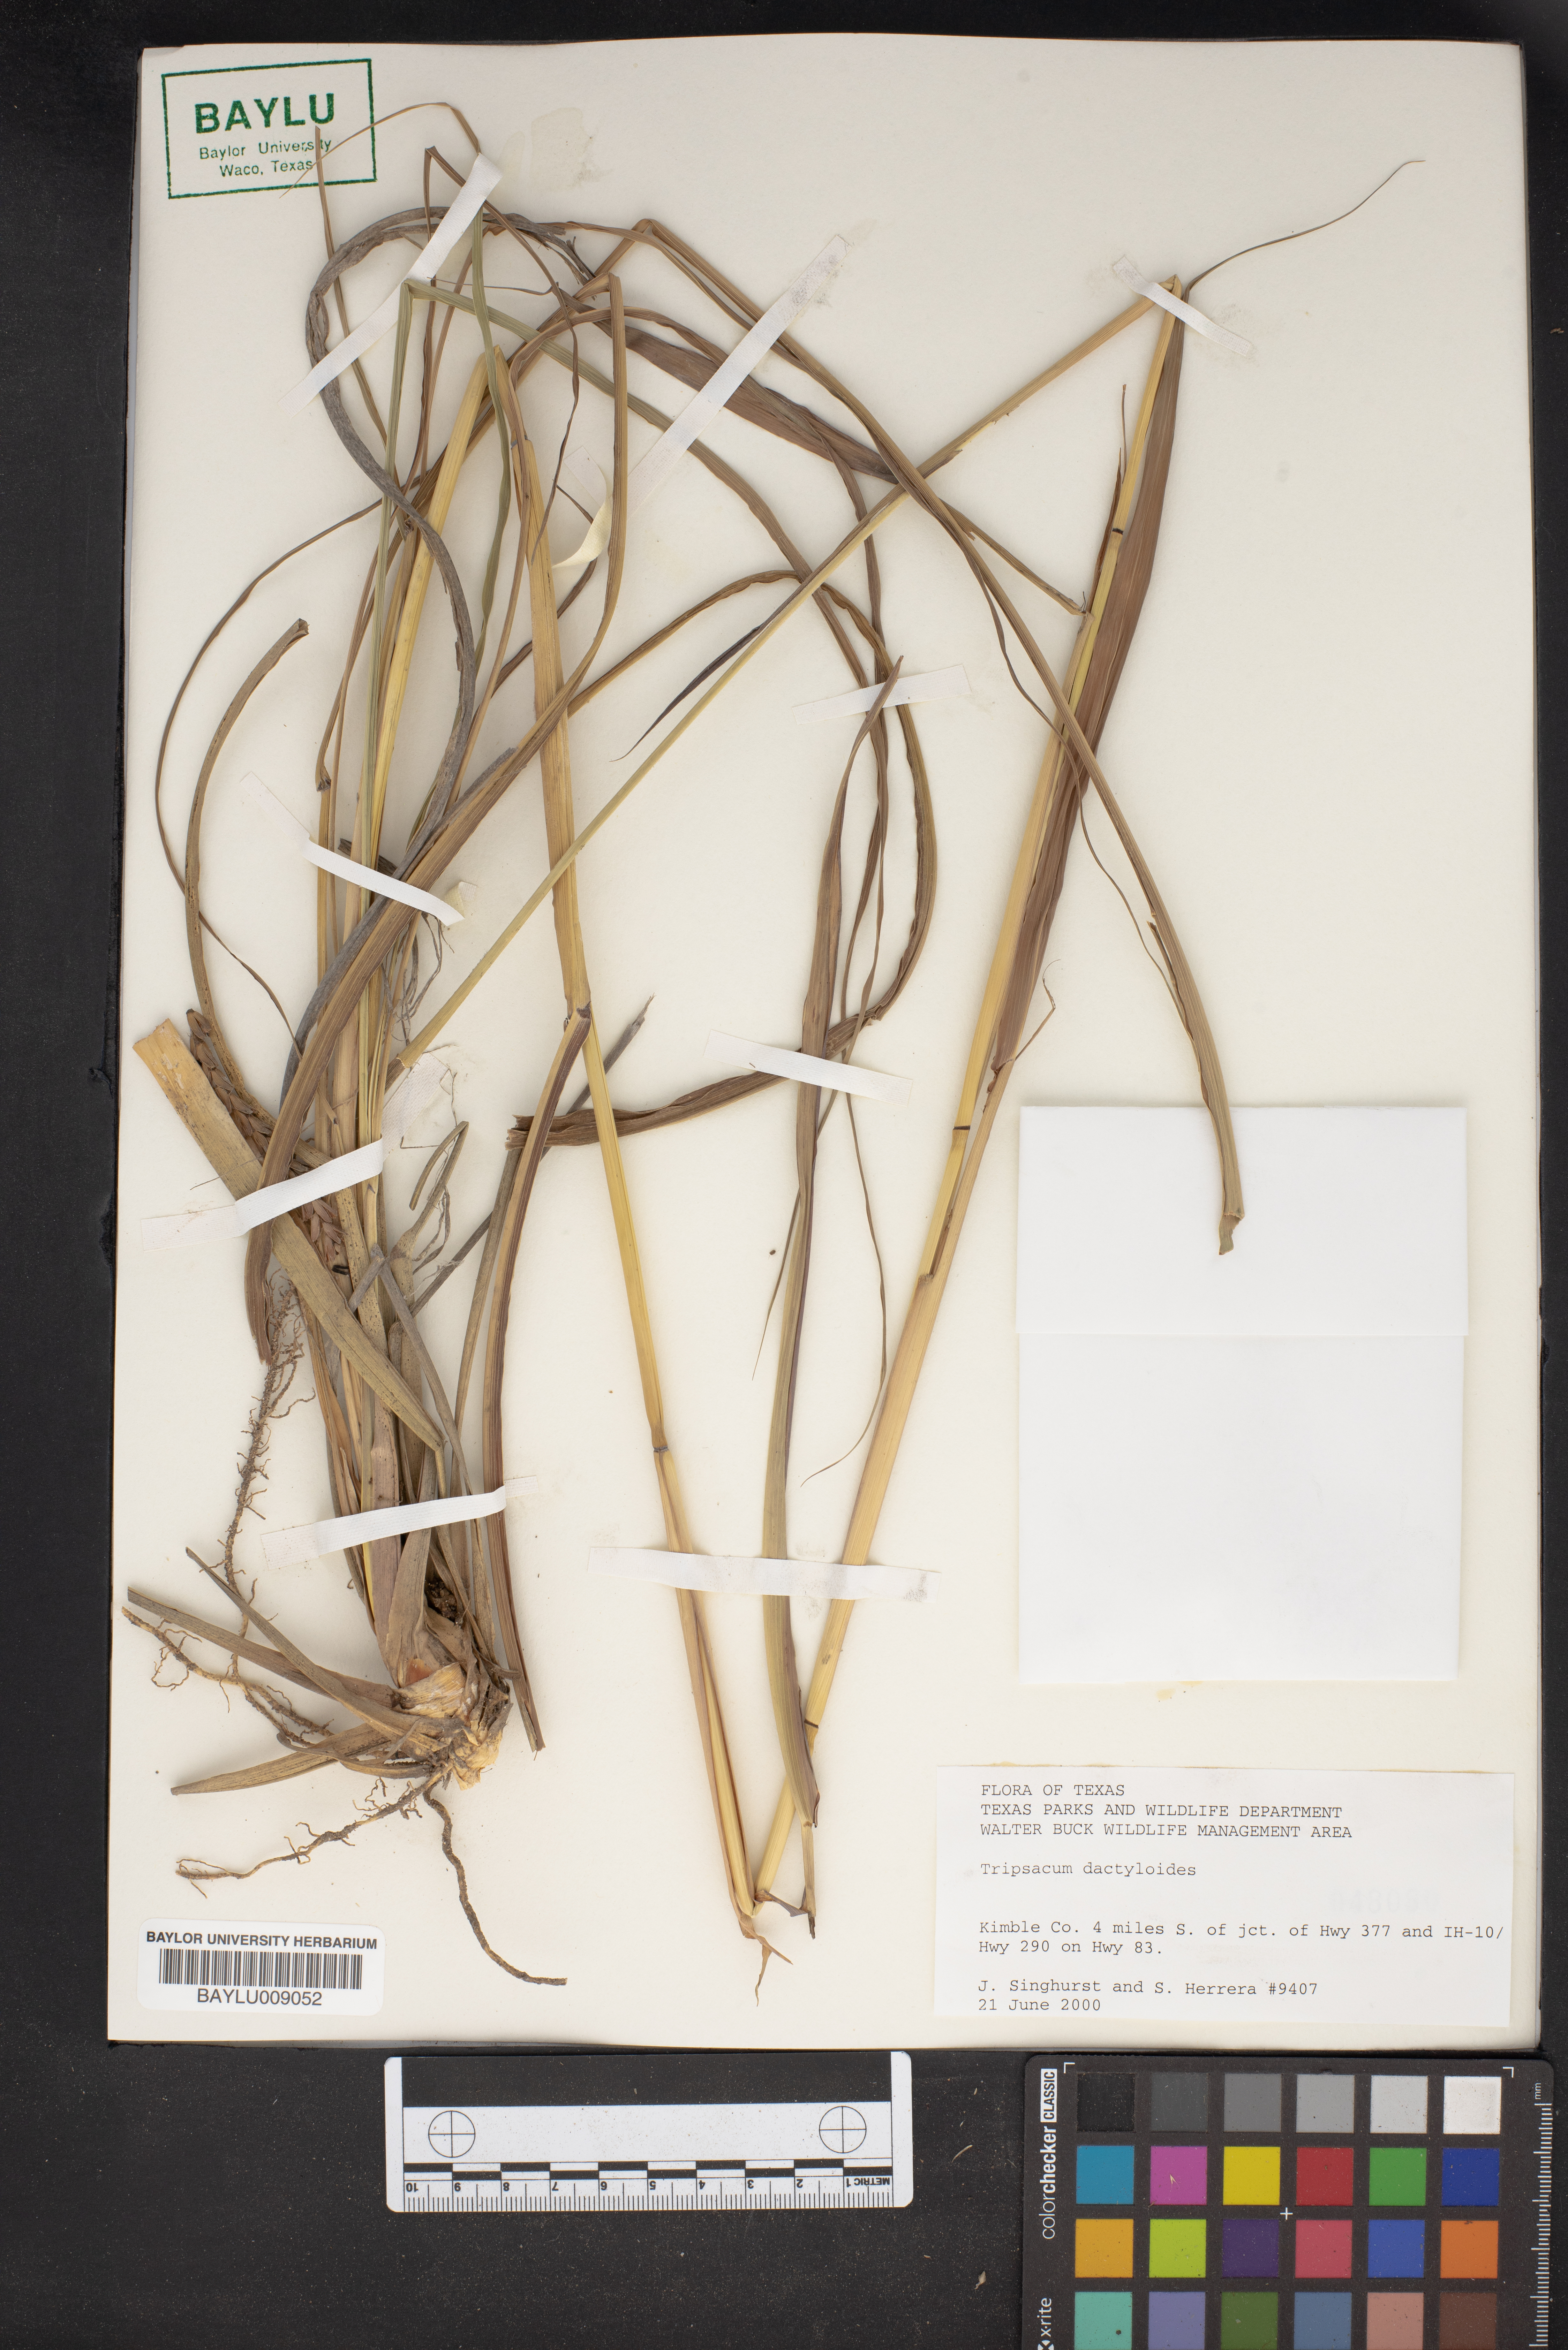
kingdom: Plantae
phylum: Tracheophyta
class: Liliopsida
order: Poales
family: Poaceae
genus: Tripsacum
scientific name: Tripsacum dactyloides
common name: Buffalo-grass
